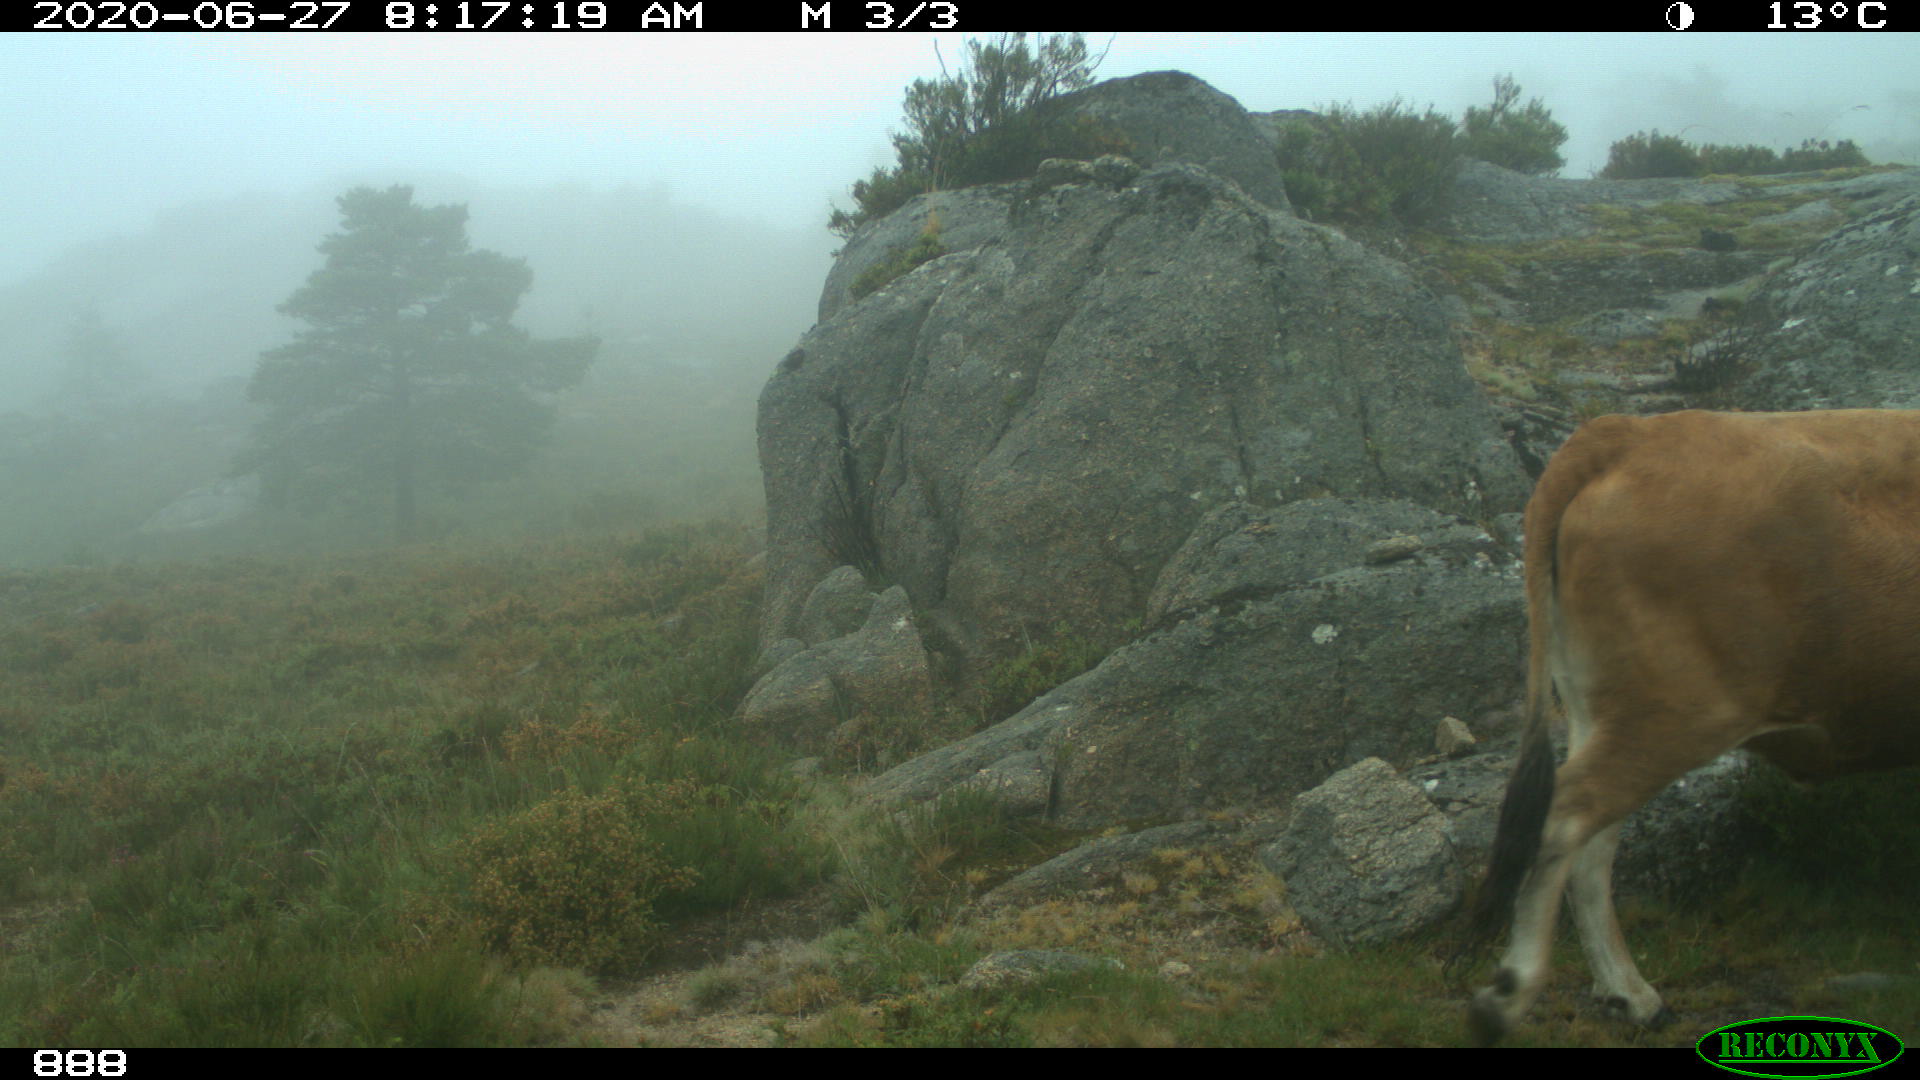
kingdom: Animalia
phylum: Chordata
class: Mammalia
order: Artiodactyla
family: Bovidae
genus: Bos
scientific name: Bos taurus
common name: Domesticated cattle
